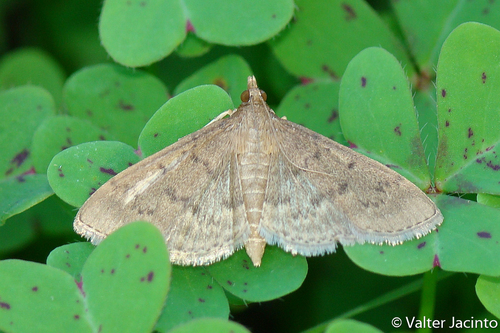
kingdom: Animalia
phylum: Arthropoda
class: Insecta
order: Lepidoptera
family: Crambidae
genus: Herpetogramma
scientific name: Herpetogramma licarsisalis
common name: Grass webworm
